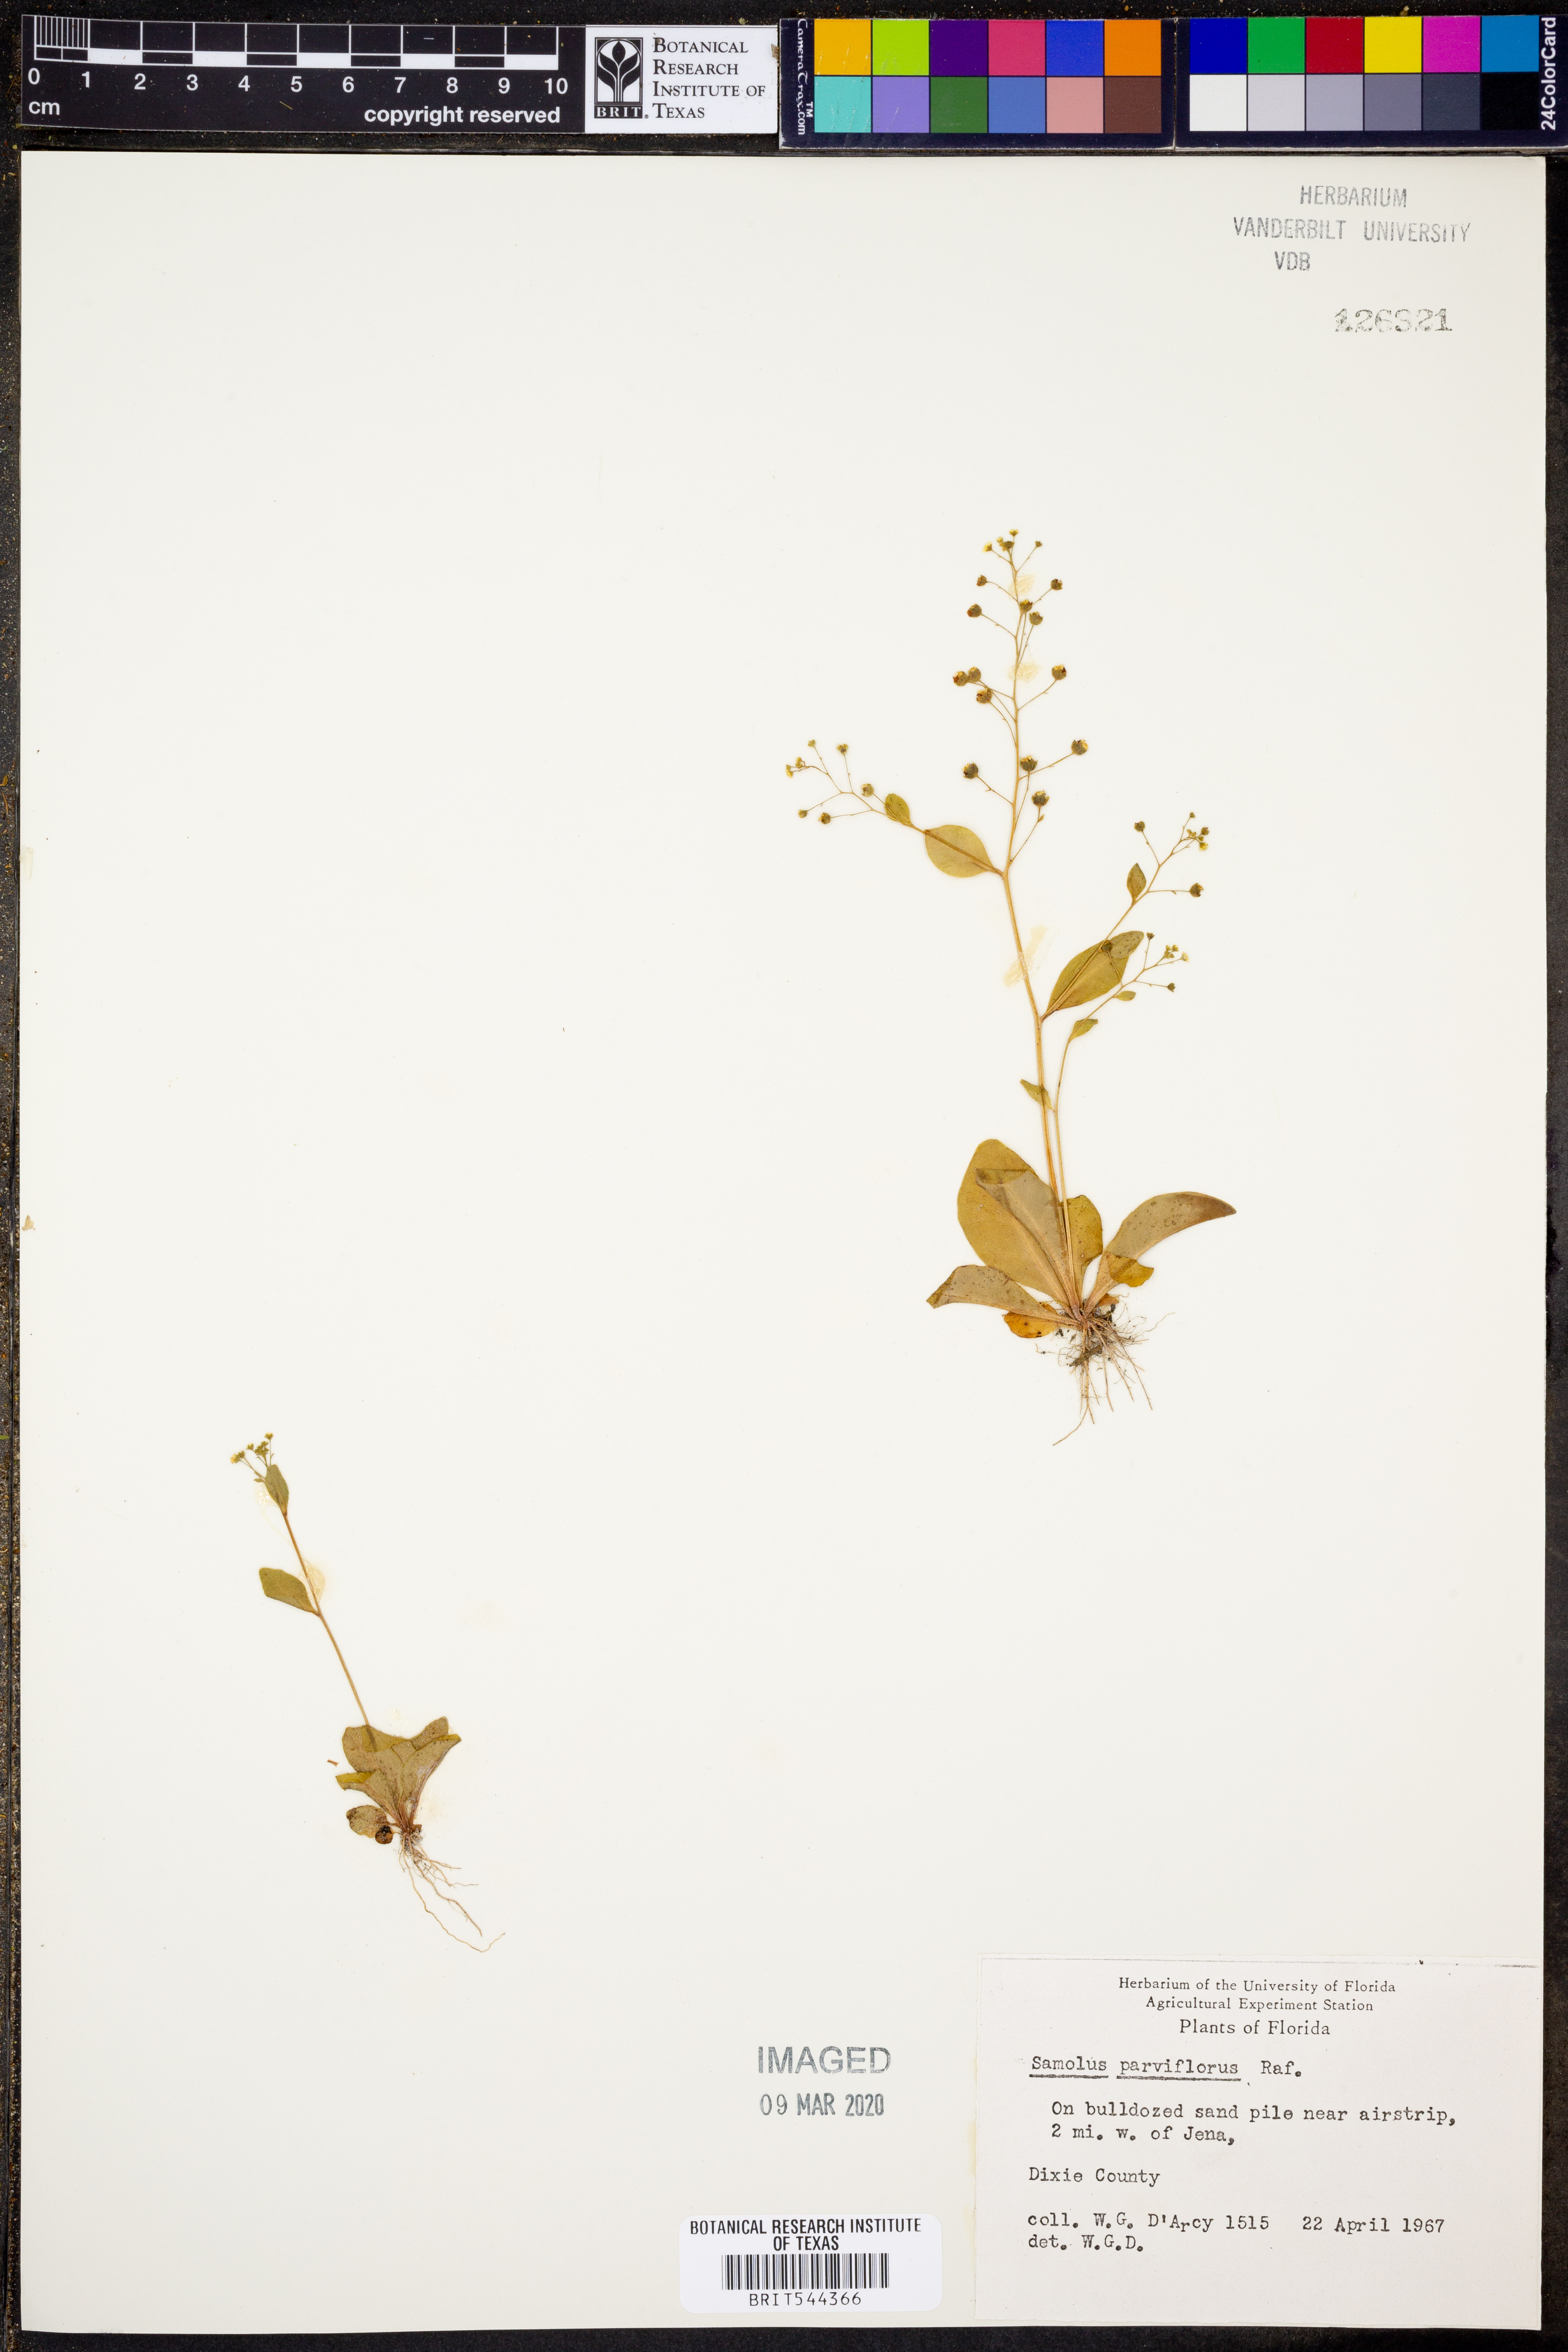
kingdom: Plantae
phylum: Tracheophyta
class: Magnoliopsida
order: Ericales
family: Primulaceae
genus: Samolus
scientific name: Samolus parviflorus
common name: False water pimpernel
